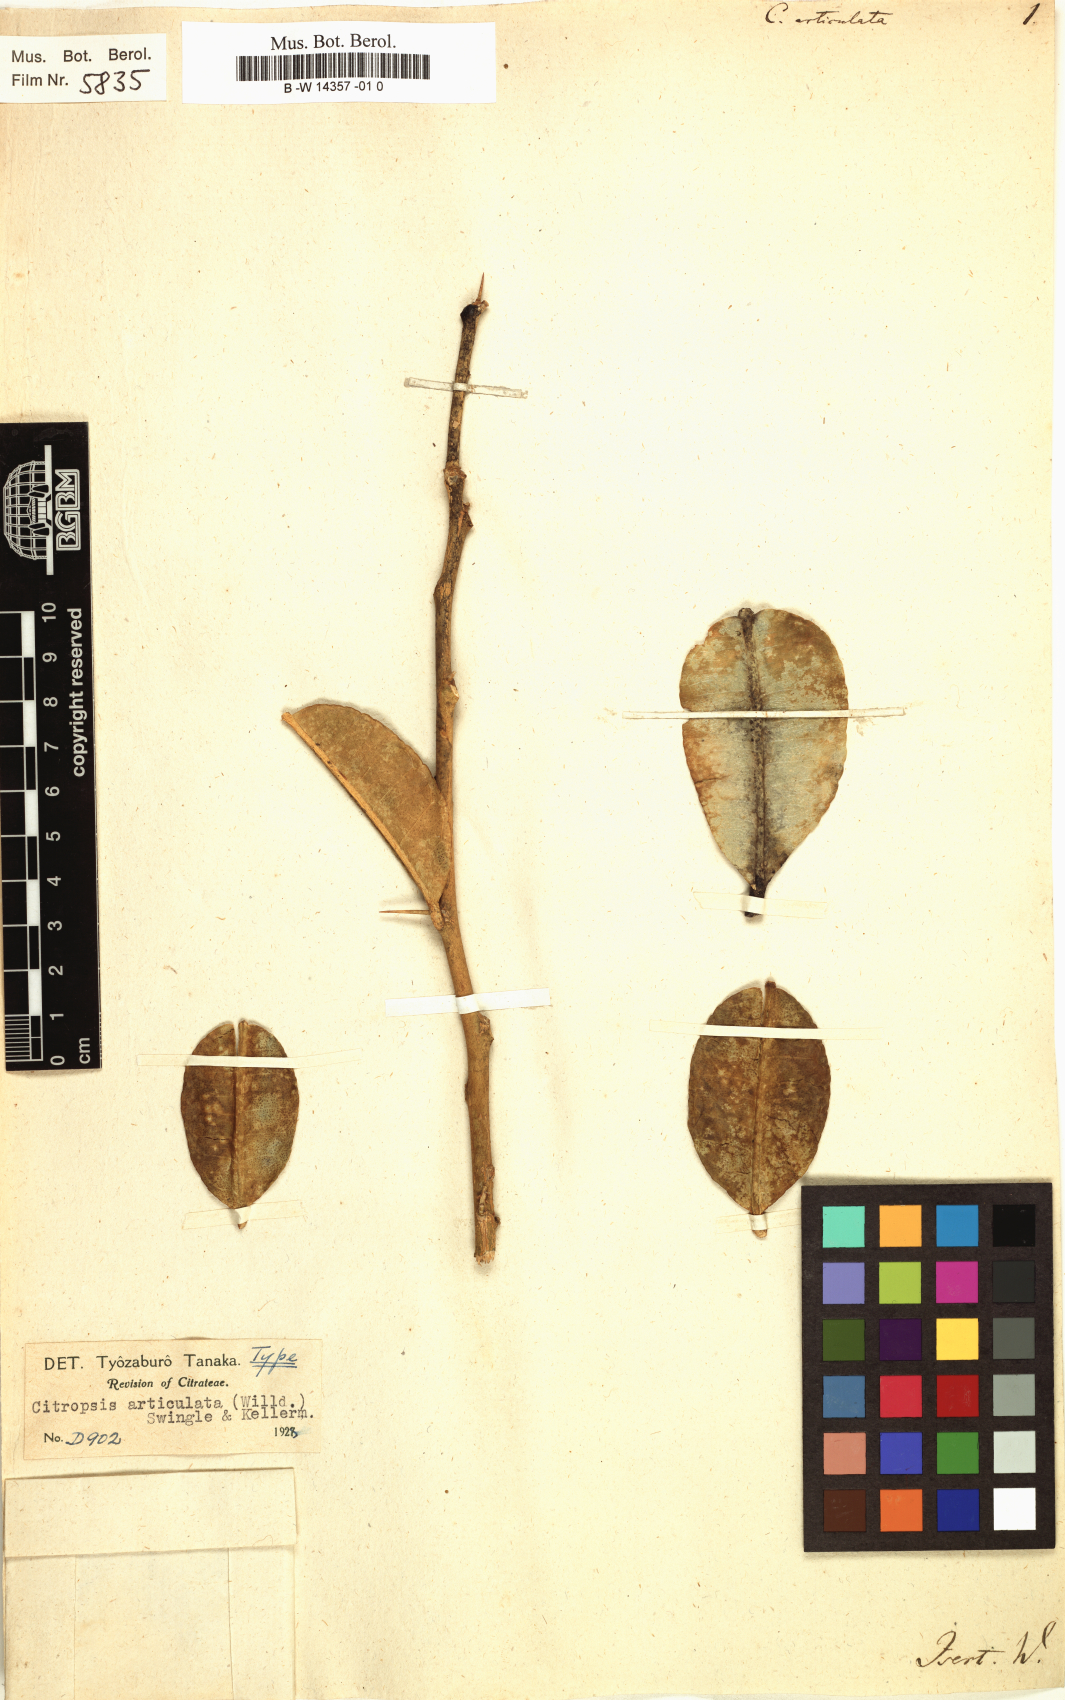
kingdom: Plantae
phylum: Tracheophyta
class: Magnoliopsida
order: Sapindales
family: Rutaceae
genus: Citropsis
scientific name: Citropsis articulata
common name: West african cherry-orange
